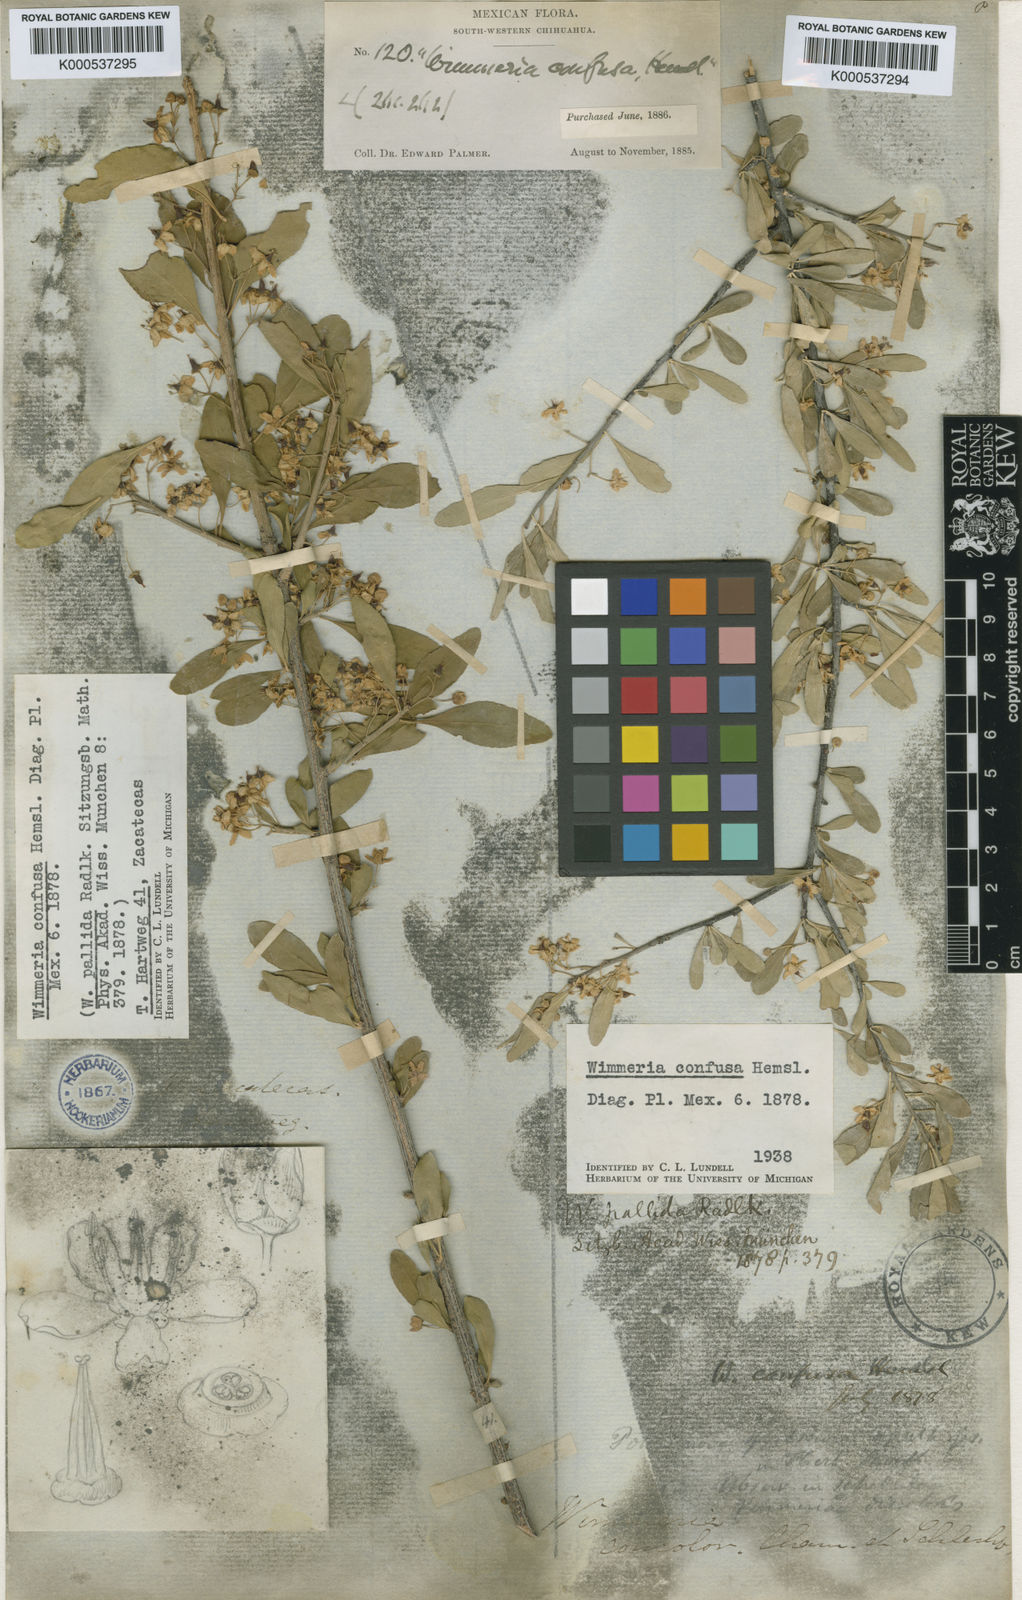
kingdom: Plantae
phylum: Tracheophyta
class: Magnoliopsida
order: Celastrales
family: Celastraceae
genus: Wimmeria
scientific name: Wimmeria mexicana
